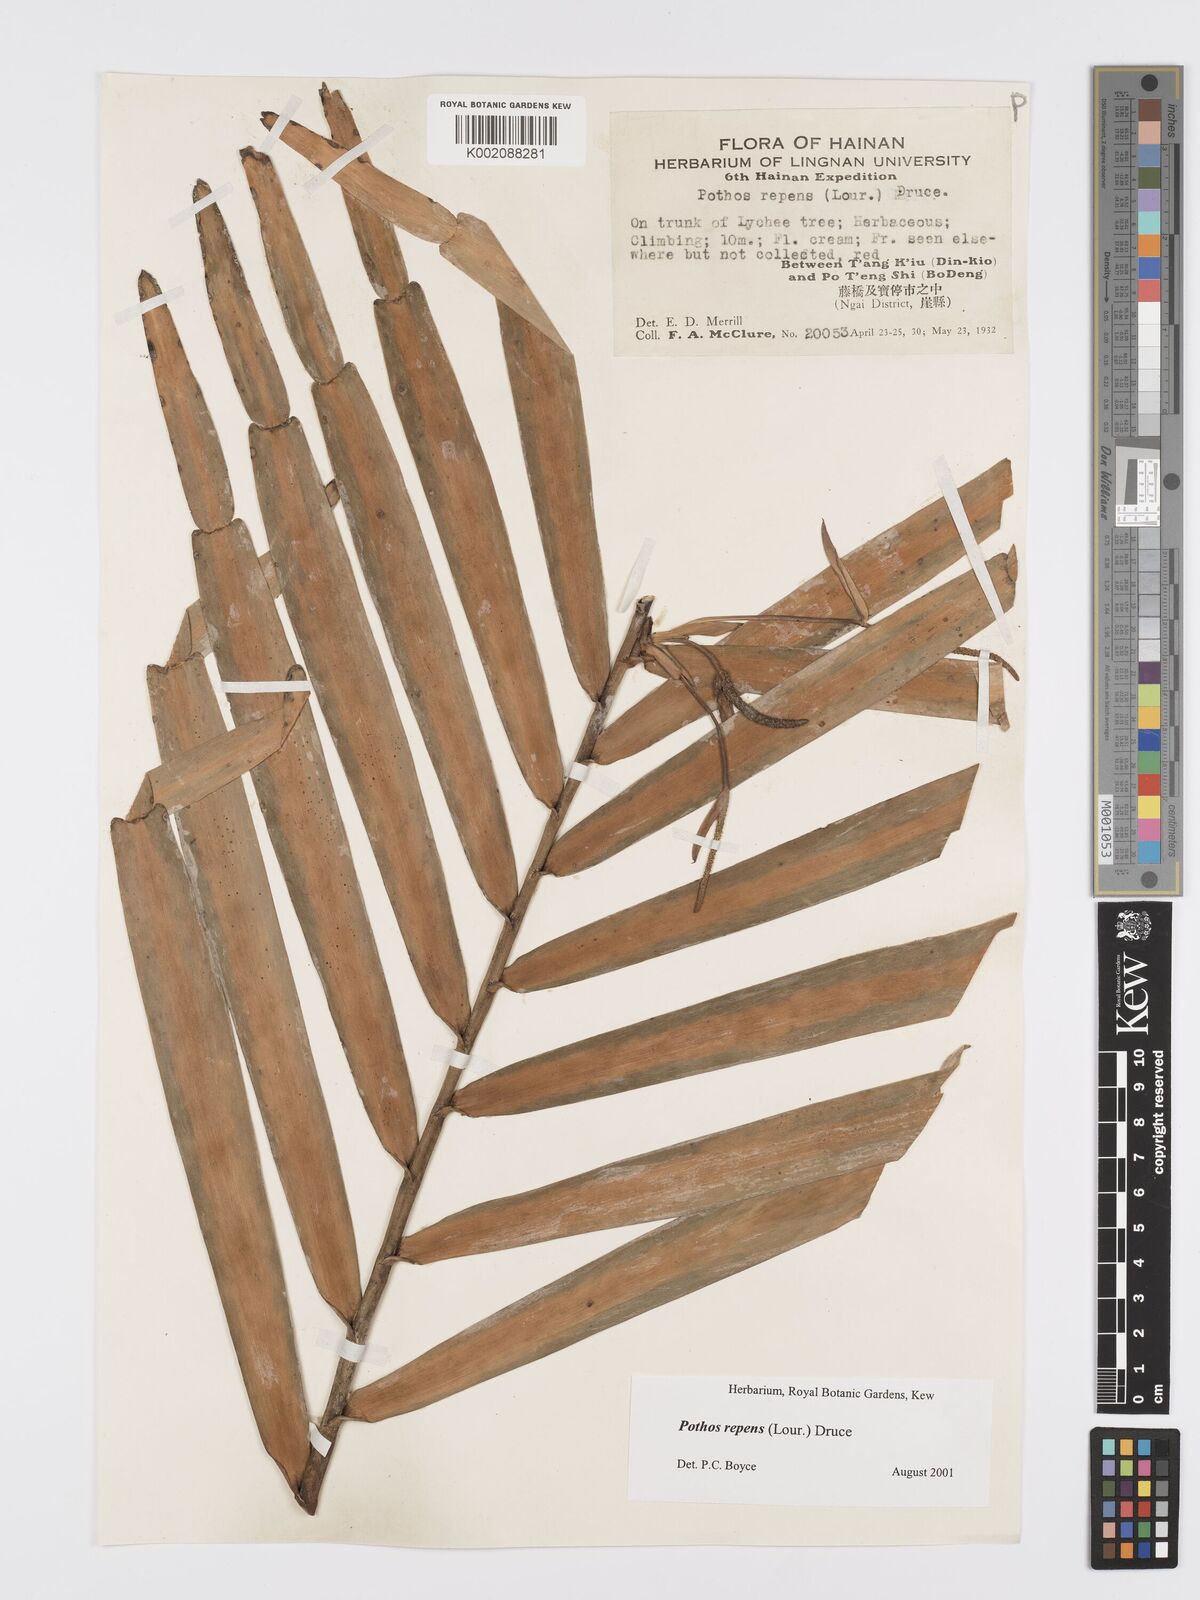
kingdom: Plantae
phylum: Tracheophyta
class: Liliopsida
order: Alismatales
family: Araceae
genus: Pothos
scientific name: Pothos repens
